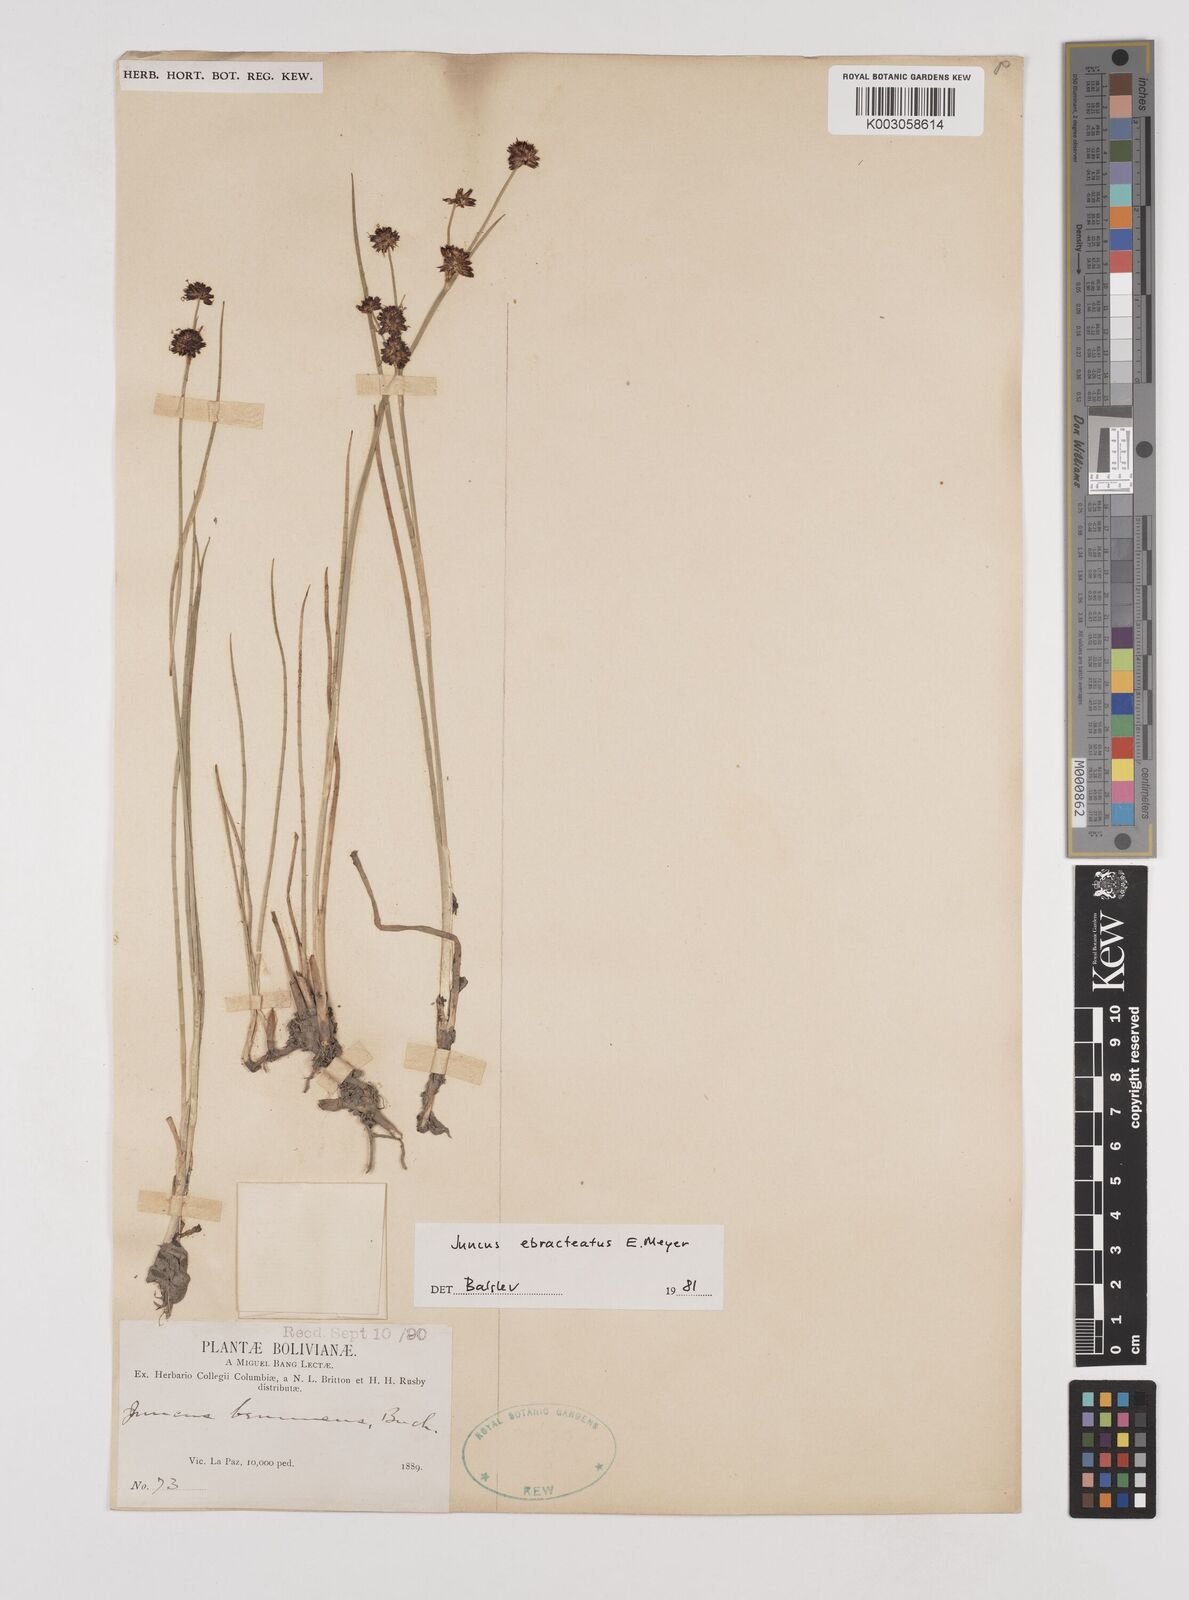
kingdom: Plantae
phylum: Tracheophyta
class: Liliopsida
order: Poales
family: Juncaceae
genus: Juncus
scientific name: Juncus ebracteatus
